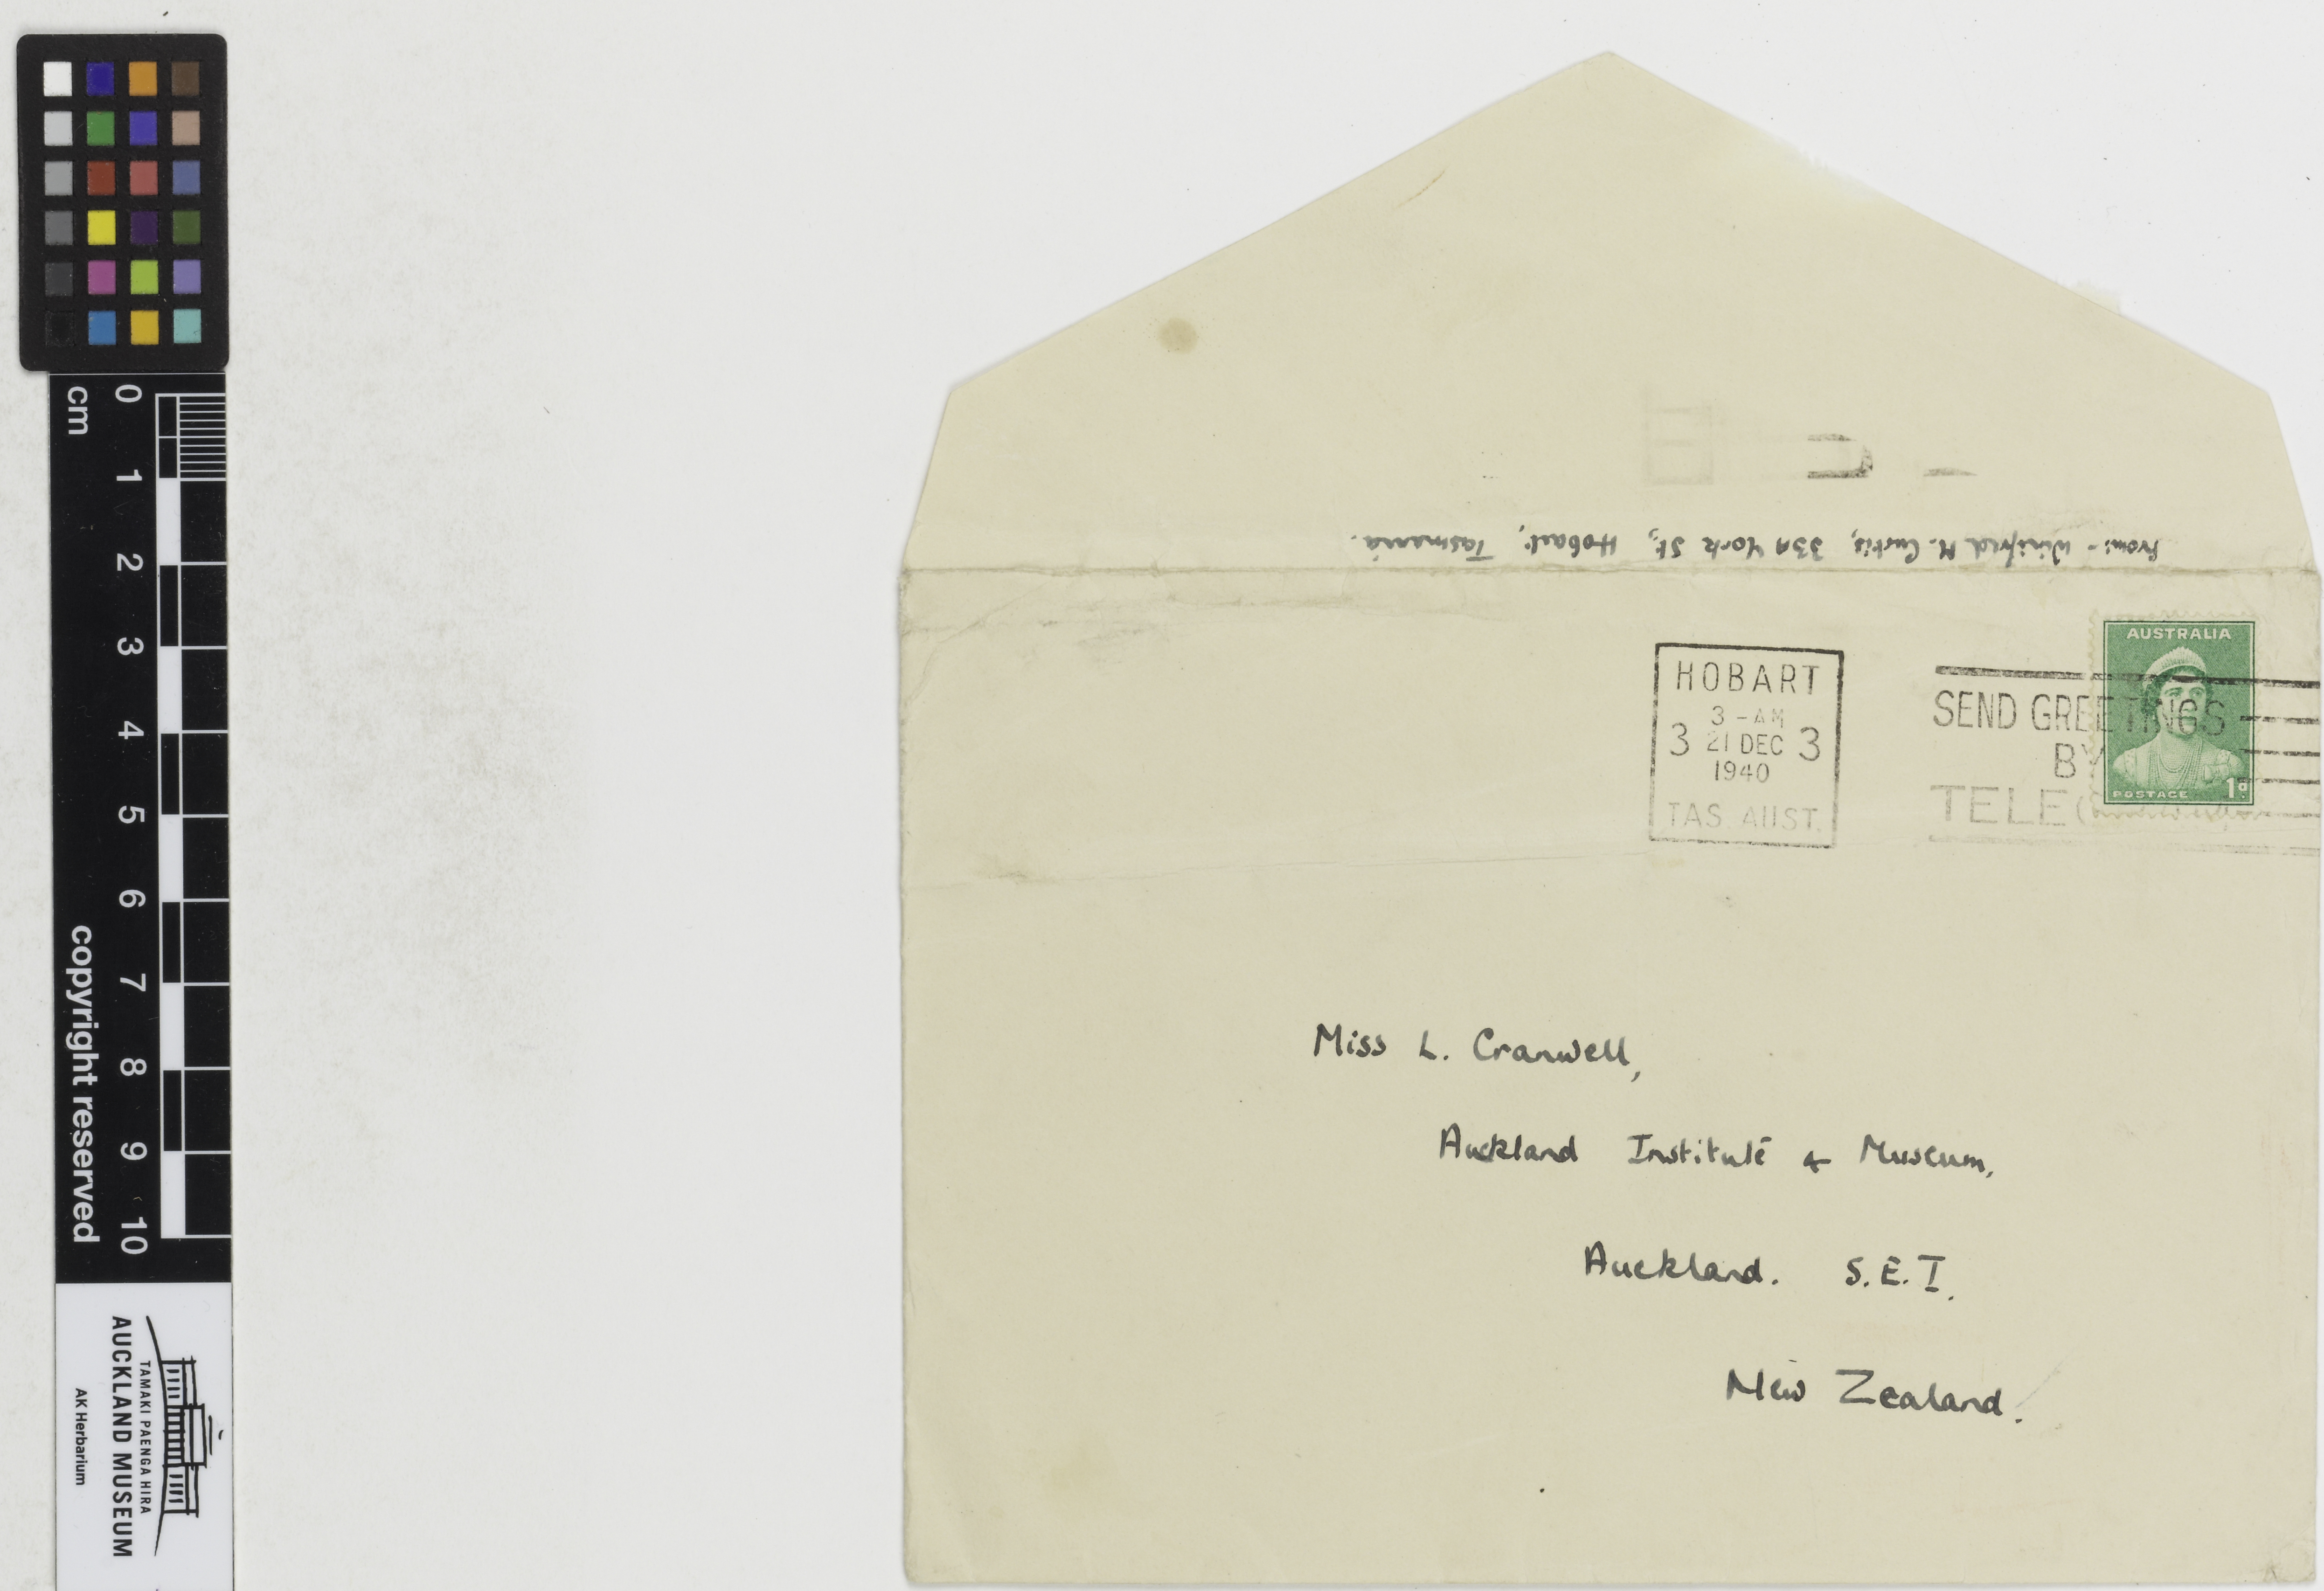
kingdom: Plantae
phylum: Tracheophyta
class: Liliopsida
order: Poales
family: Poaceae
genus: Rytidosperma
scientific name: Rytidosperma exiguum
